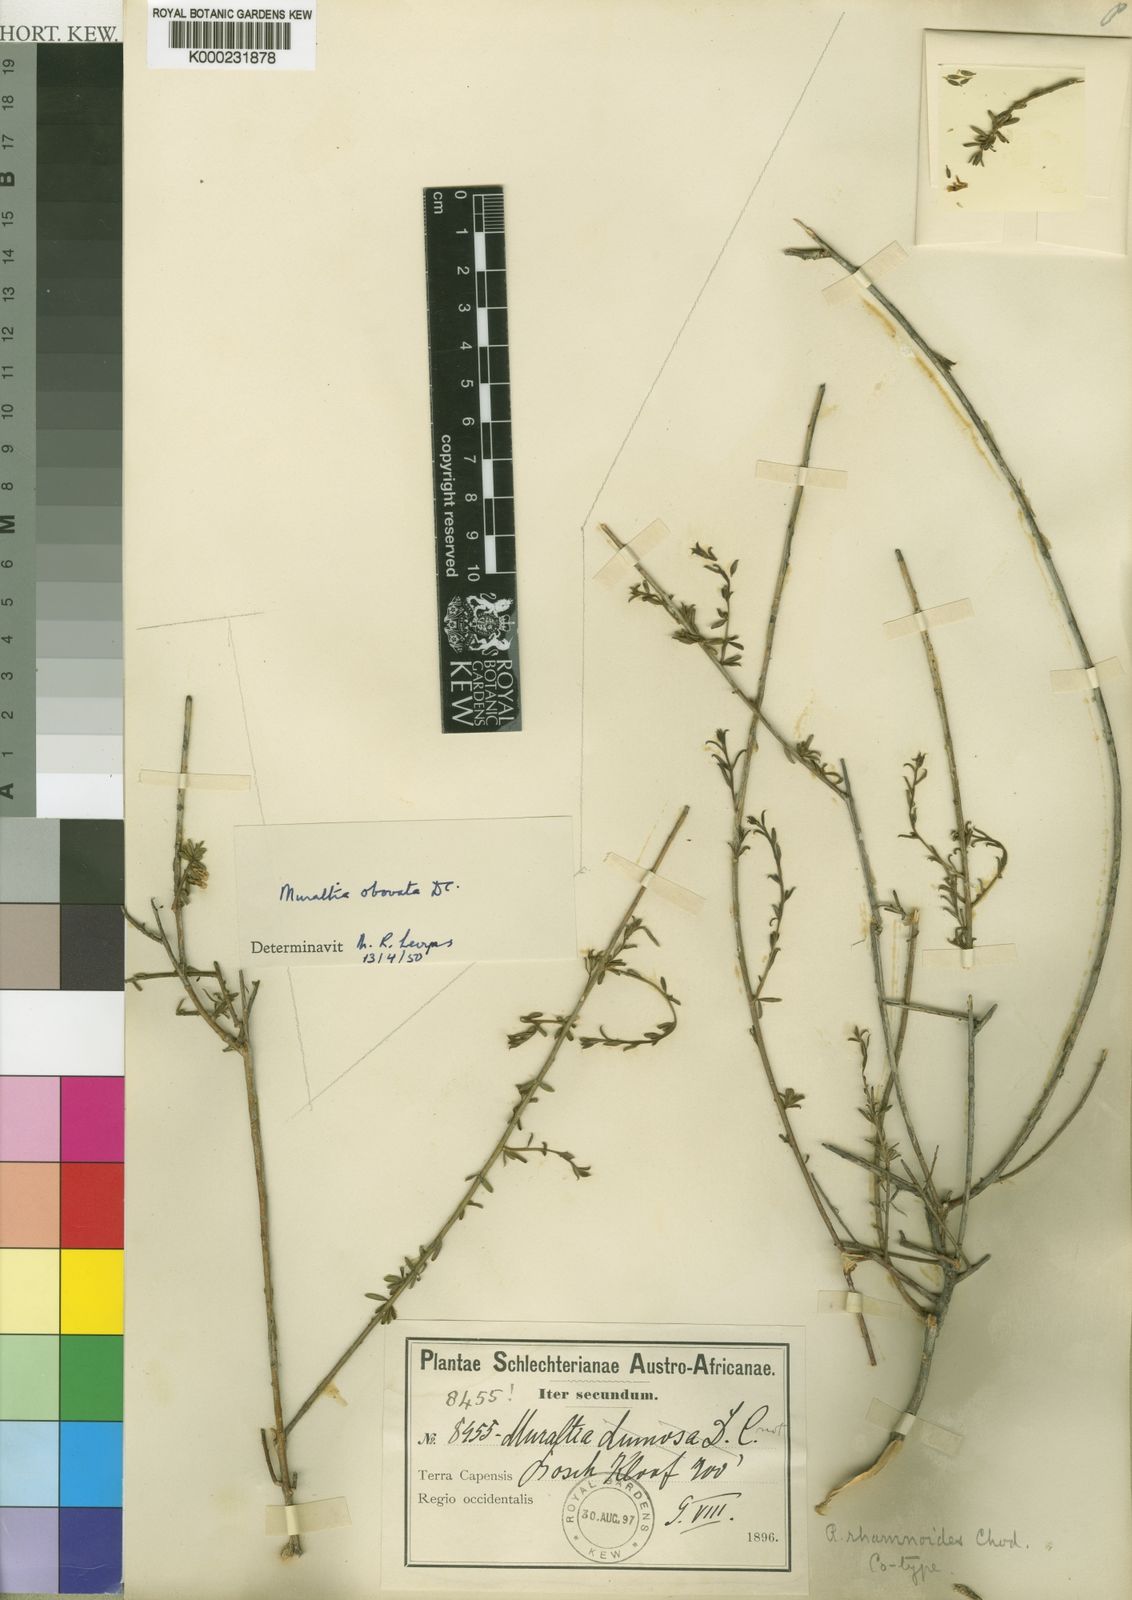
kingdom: Plantae
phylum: Tracheophyta
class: Magnoliopsida
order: Fabales
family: Polygalaceae
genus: Muraltia
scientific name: Muraltia rhamnoides
